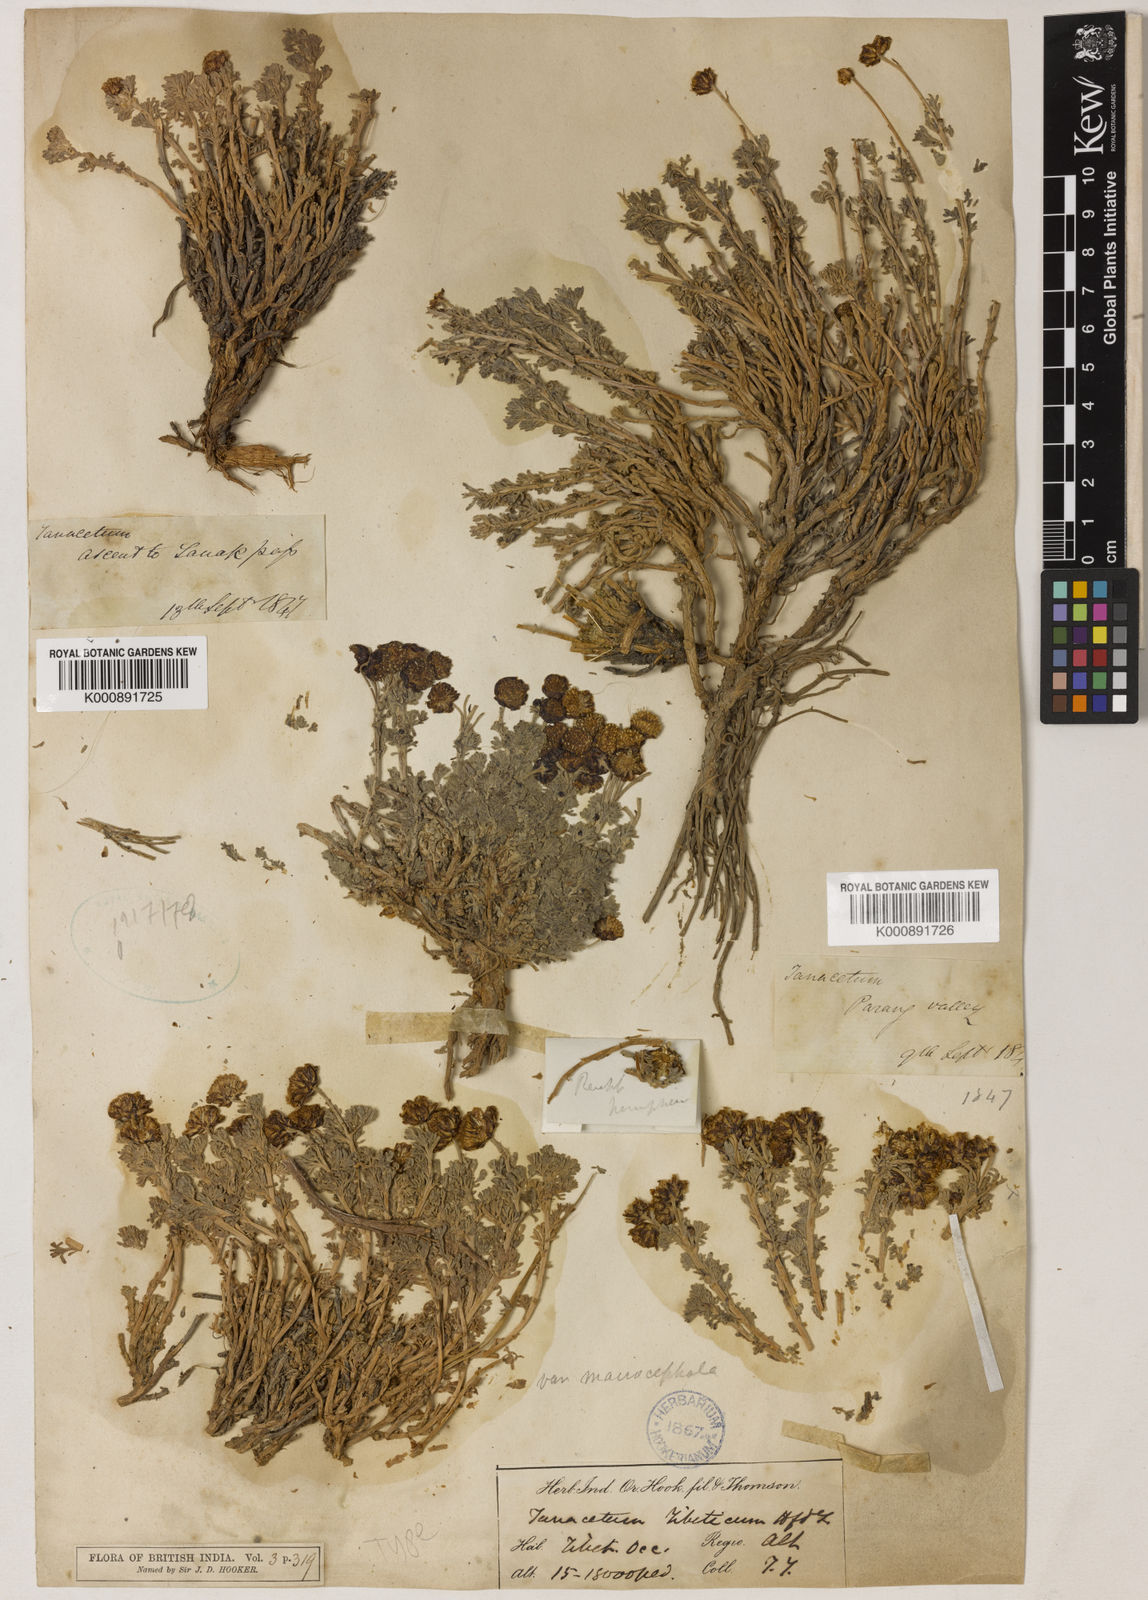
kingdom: Plantae
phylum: Tracheophyta
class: Magnoliopsida
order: Asterales
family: Asteraceae
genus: Ajania
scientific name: Ajania tibetica
